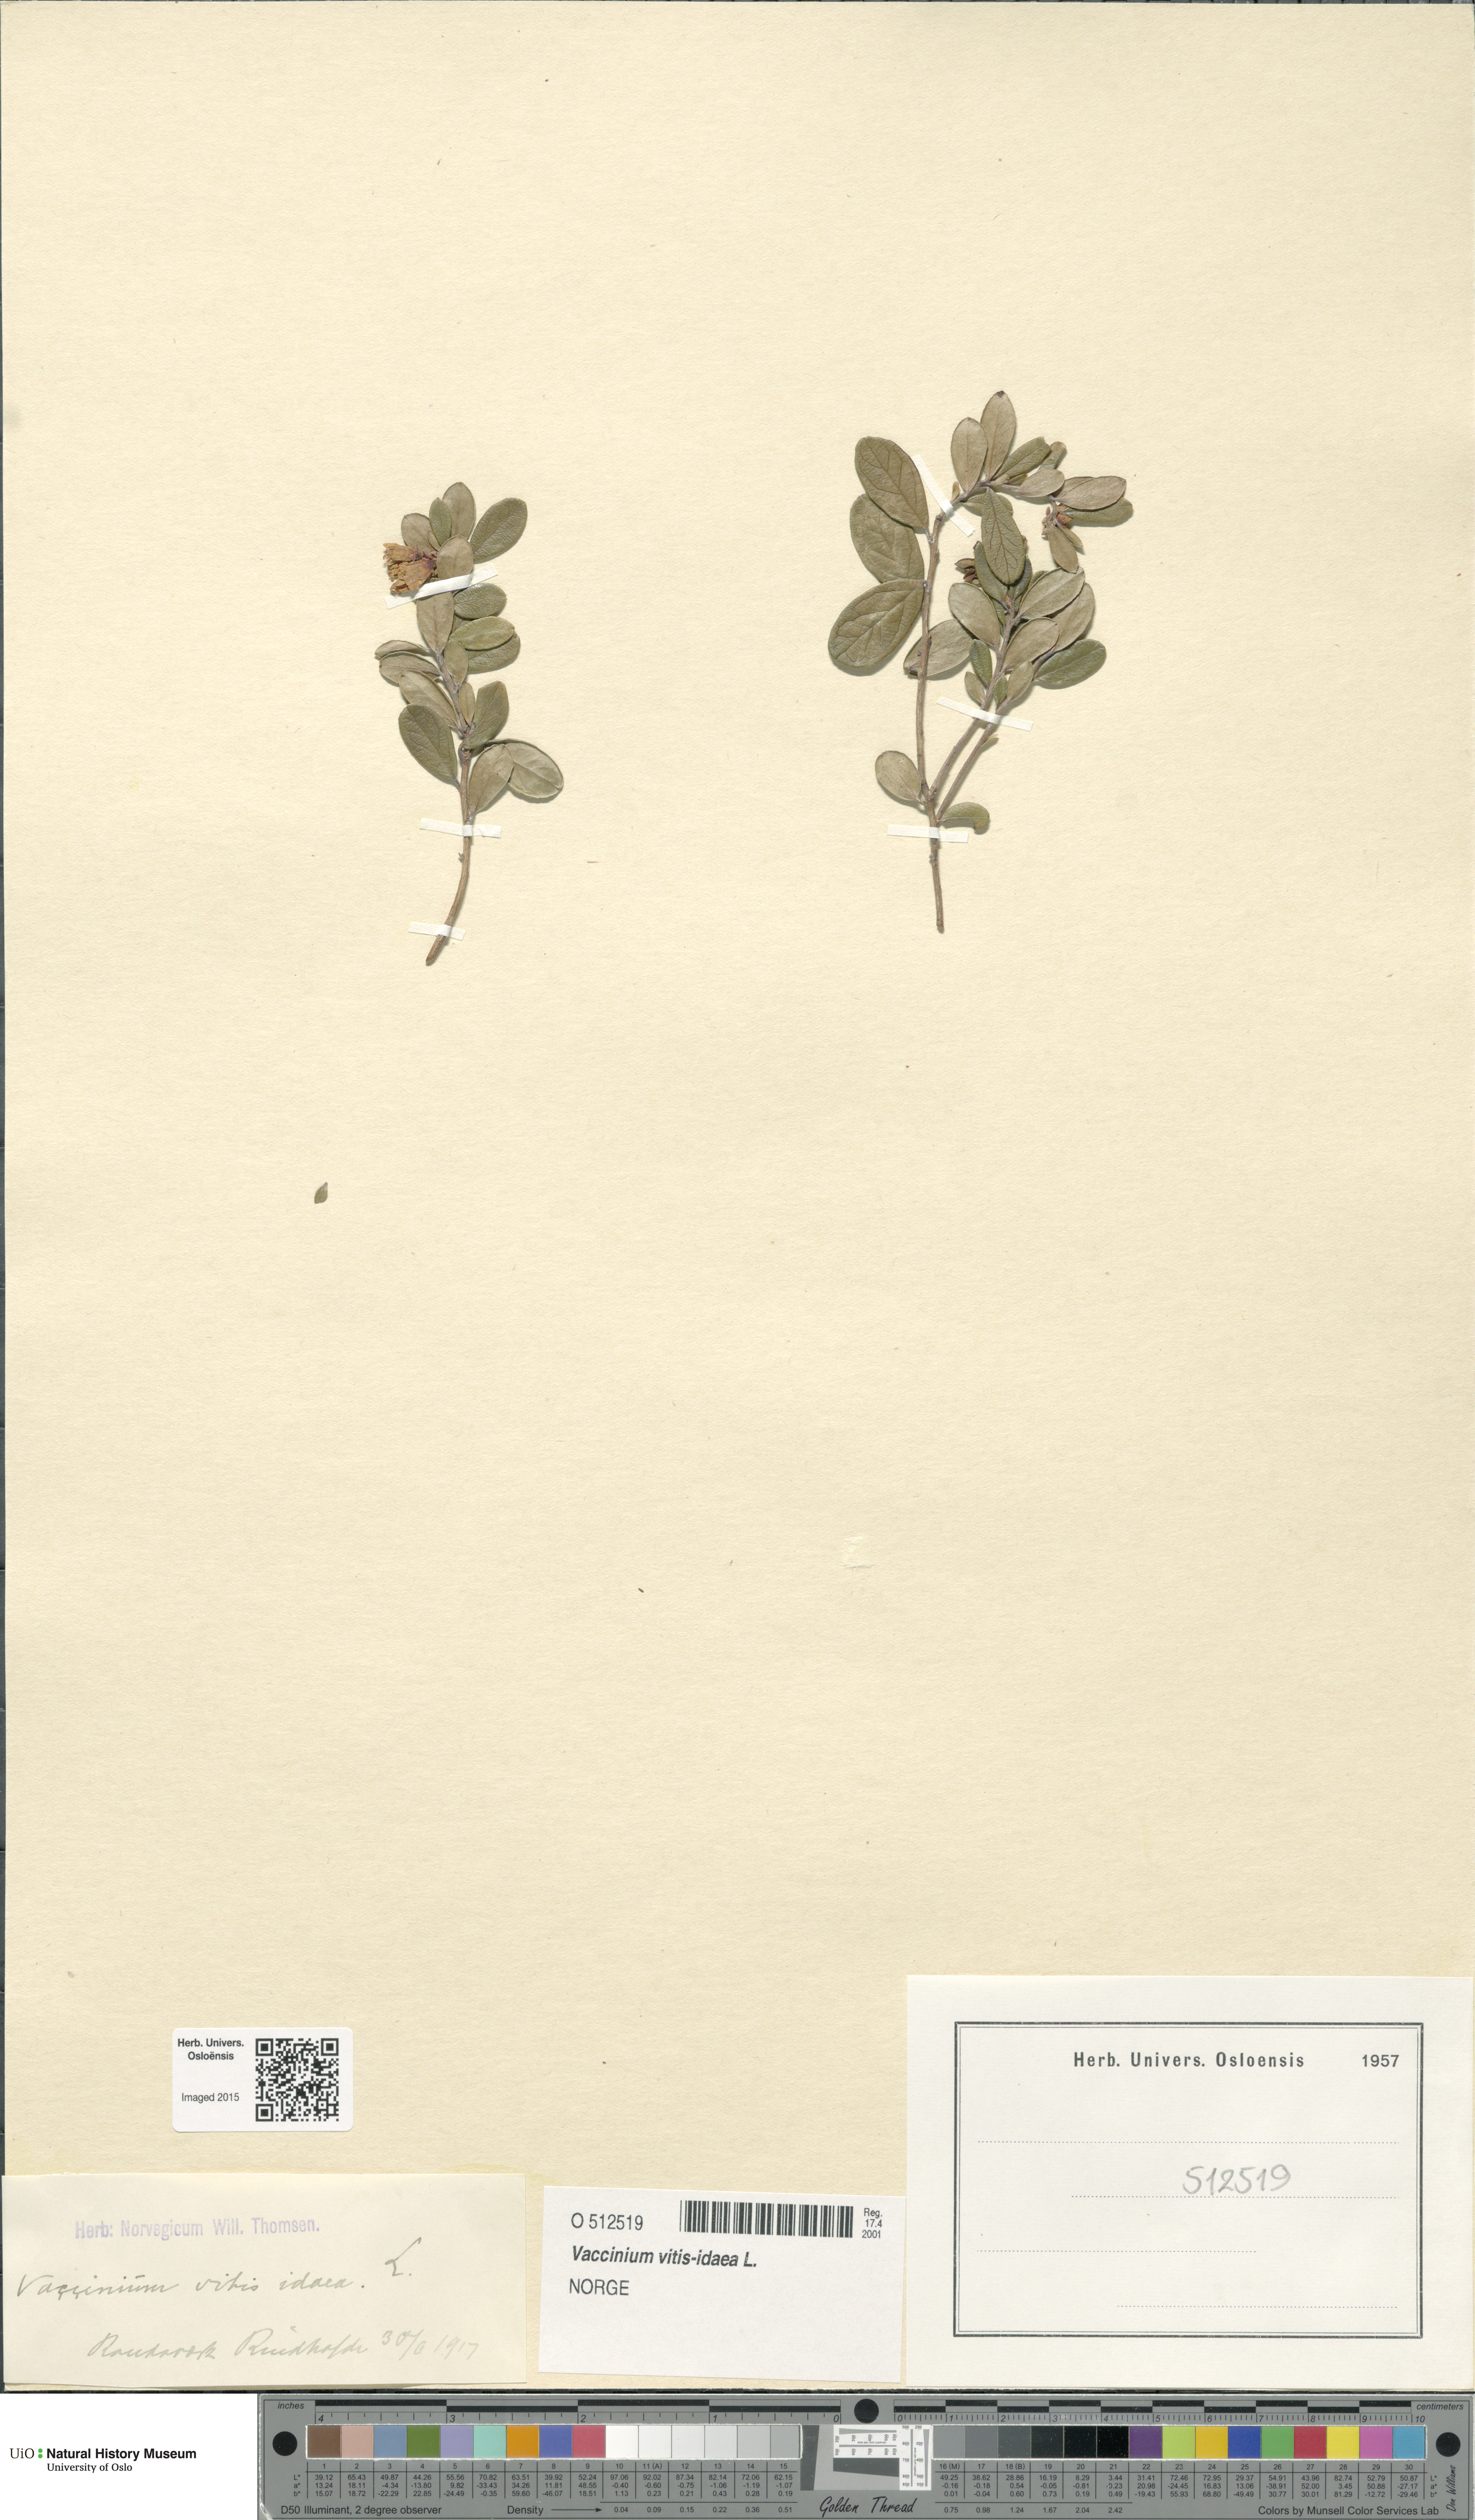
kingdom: Plantae
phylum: Tracheophyta
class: Magnoliopsida
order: Ericales
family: Ericaceae
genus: Vaccinium
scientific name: Vaccinium vitis-idaea
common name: Cowberry
